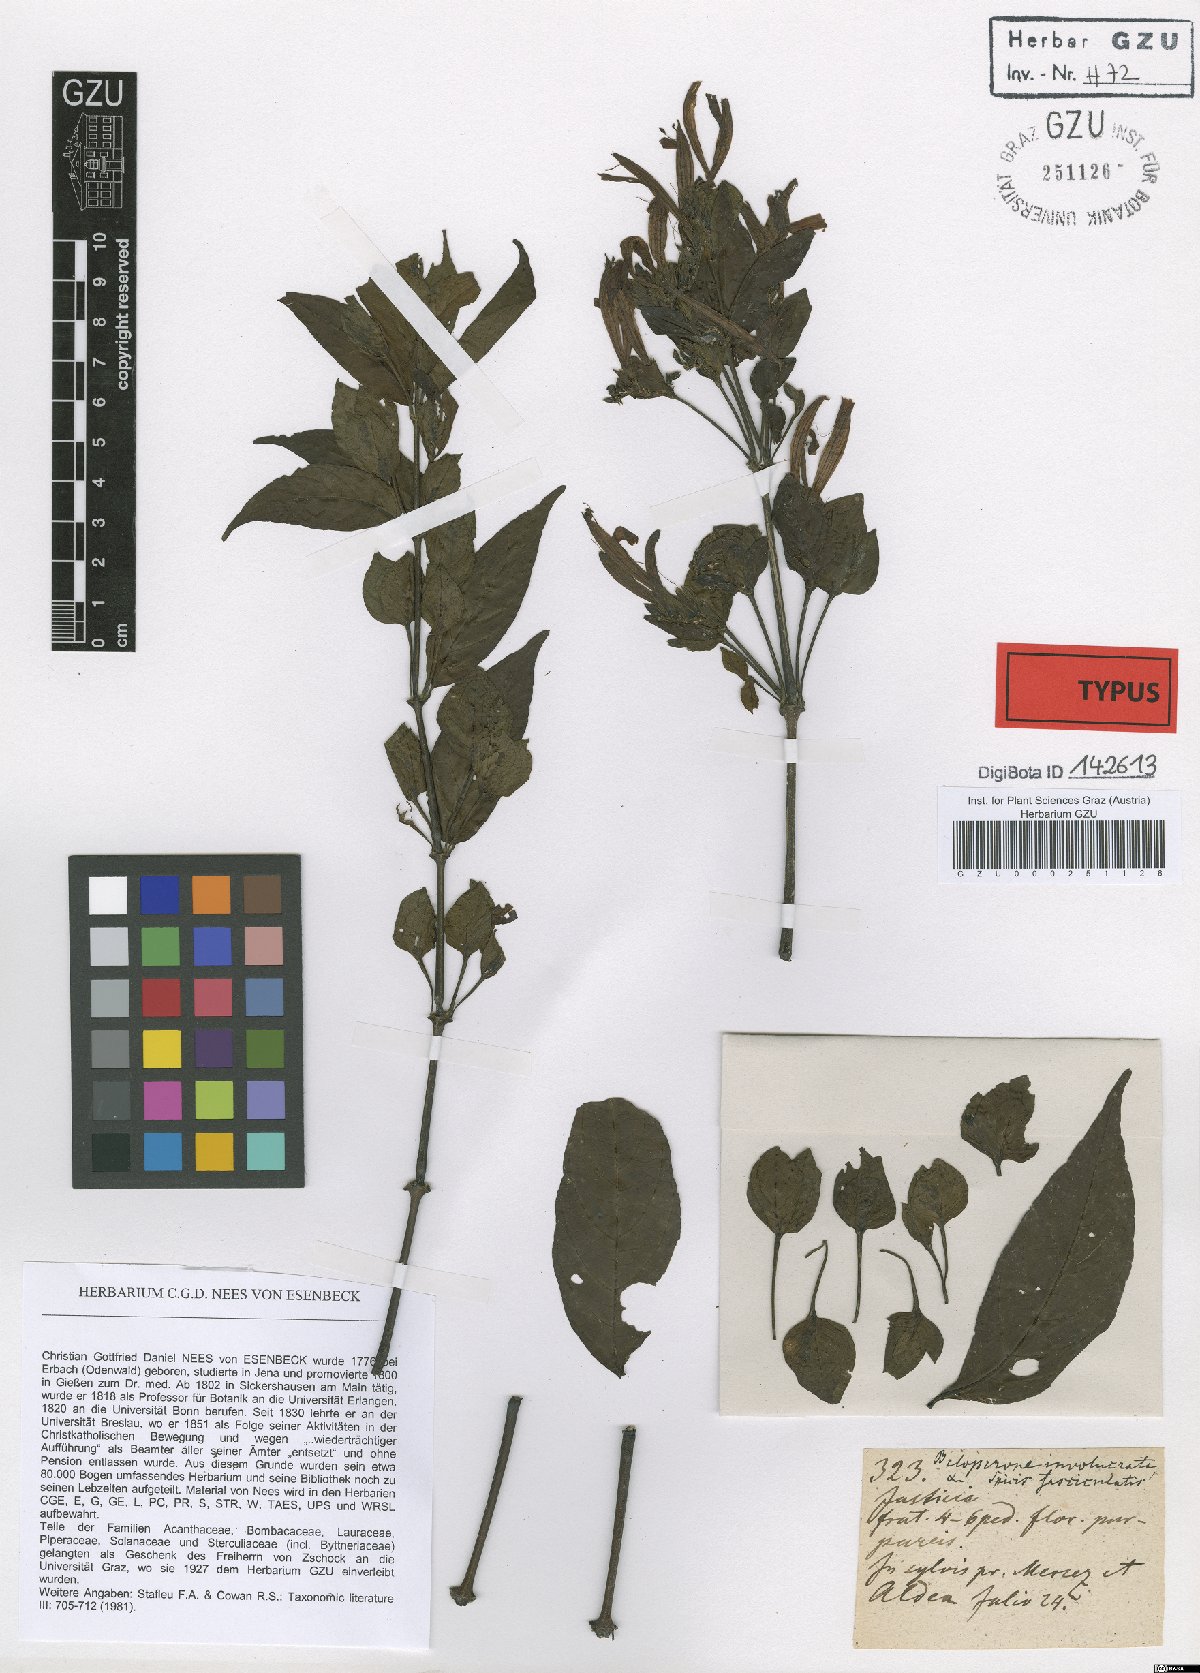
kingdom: Plantae
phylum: Tracheophyta
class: Magnoliopsida
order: Lamiales
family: Acanthaceae
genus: Justicia
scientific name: Justicia involucrata
